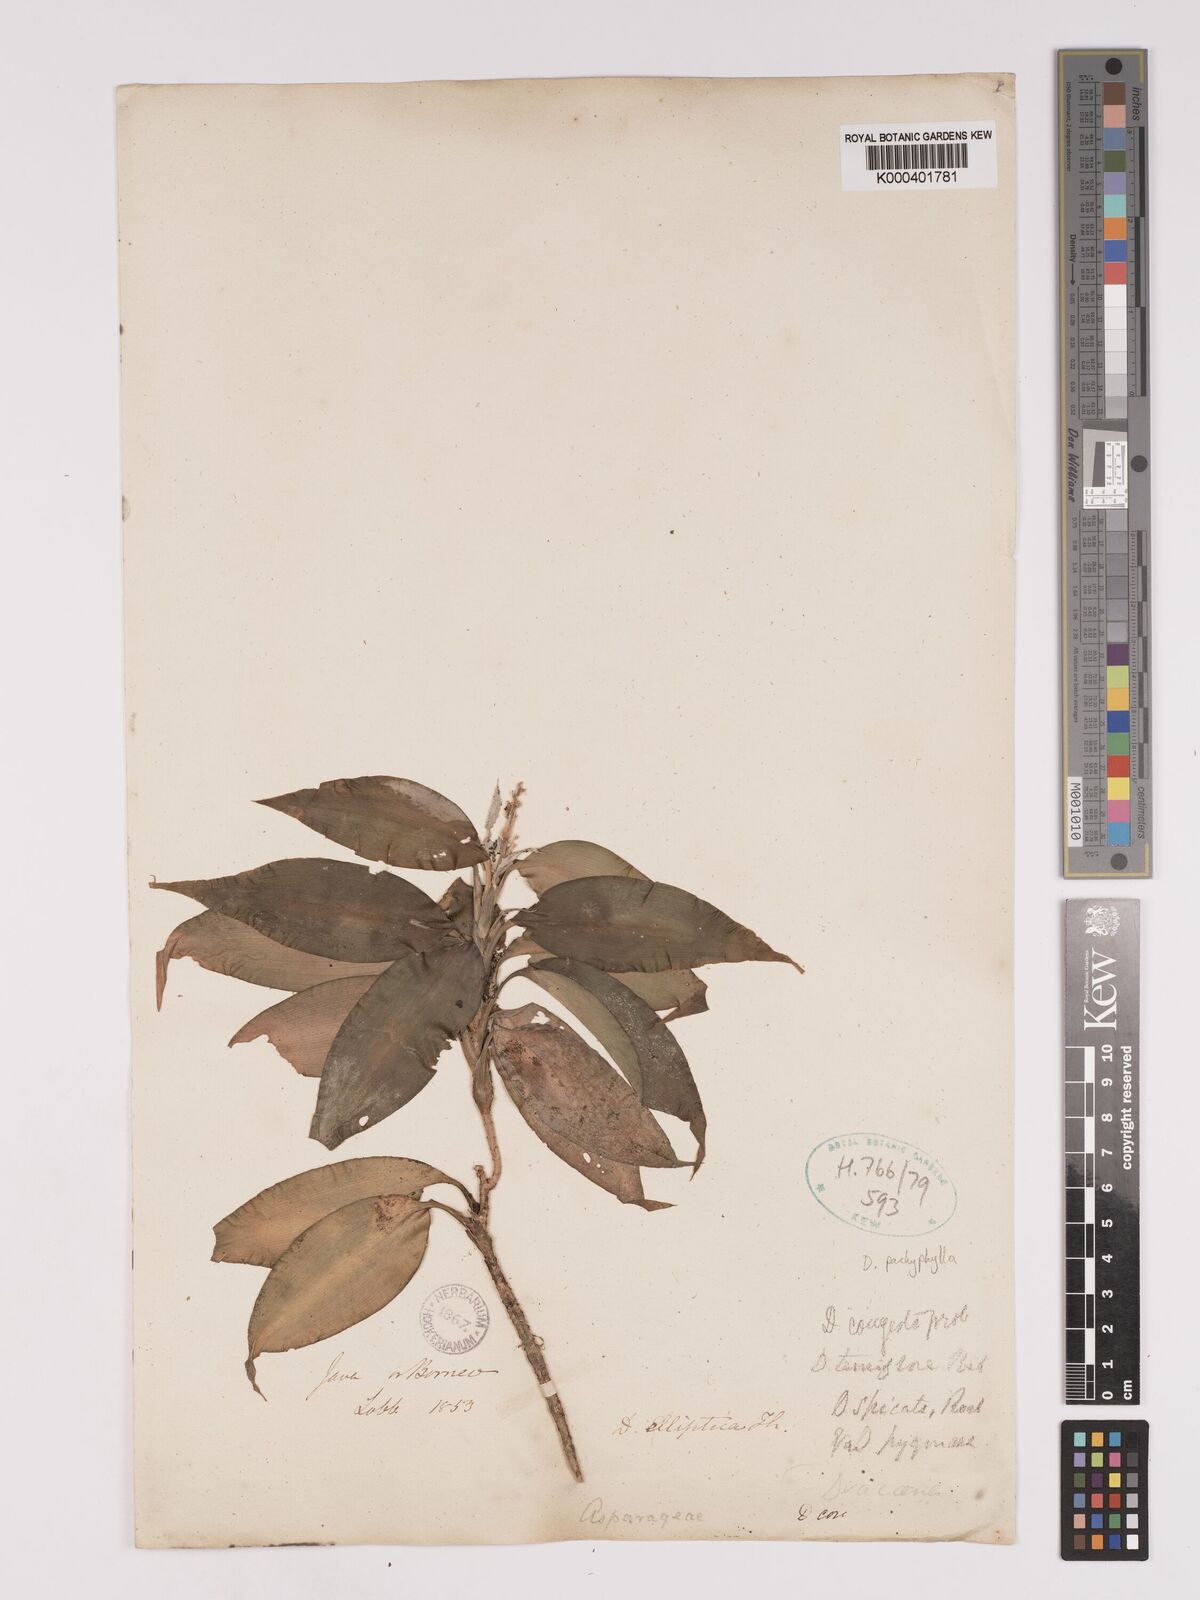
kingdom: Plantae
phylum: Tracheophyta
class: Liliopsida
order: Asparagales
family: Asparagaceae
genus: Dracaena
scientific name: Dracaena pachyphylla
